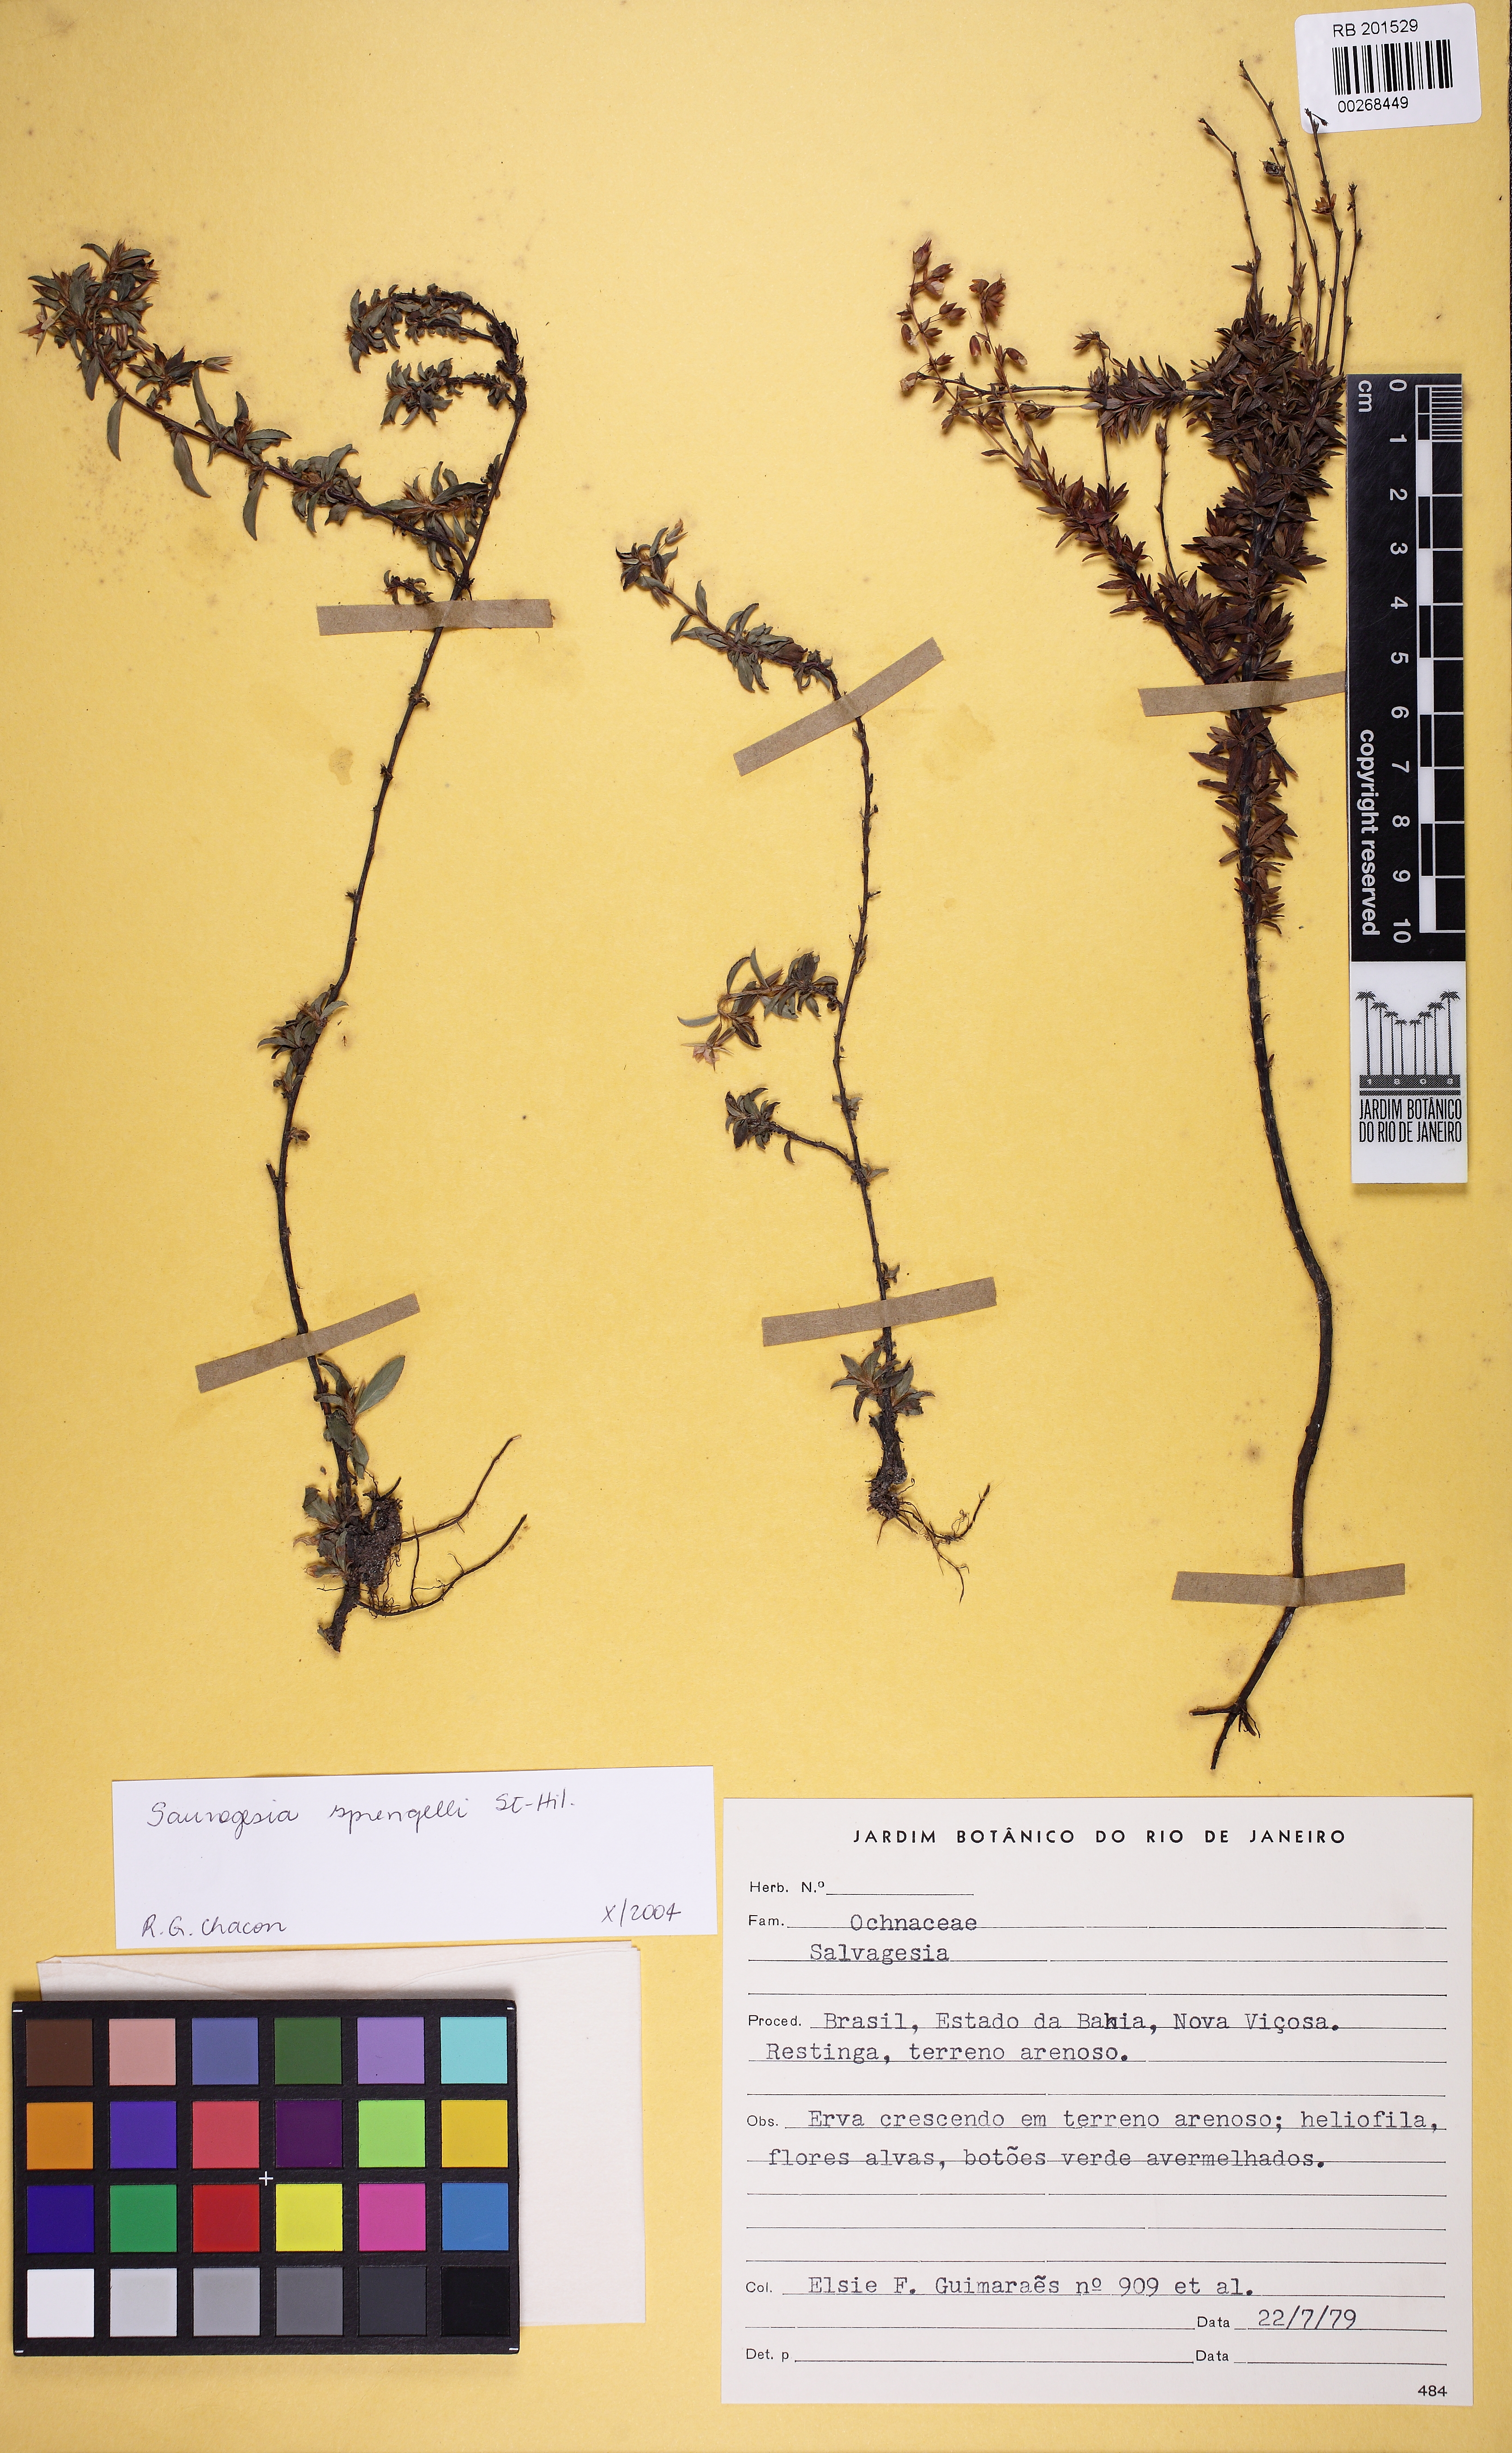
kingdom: Plantae
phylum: Tracheophyta
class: Magnoliopsida
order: Malpighiales
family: Ochnaceae
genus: Sauvagesia
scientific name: Sauvagesia sprengelii
